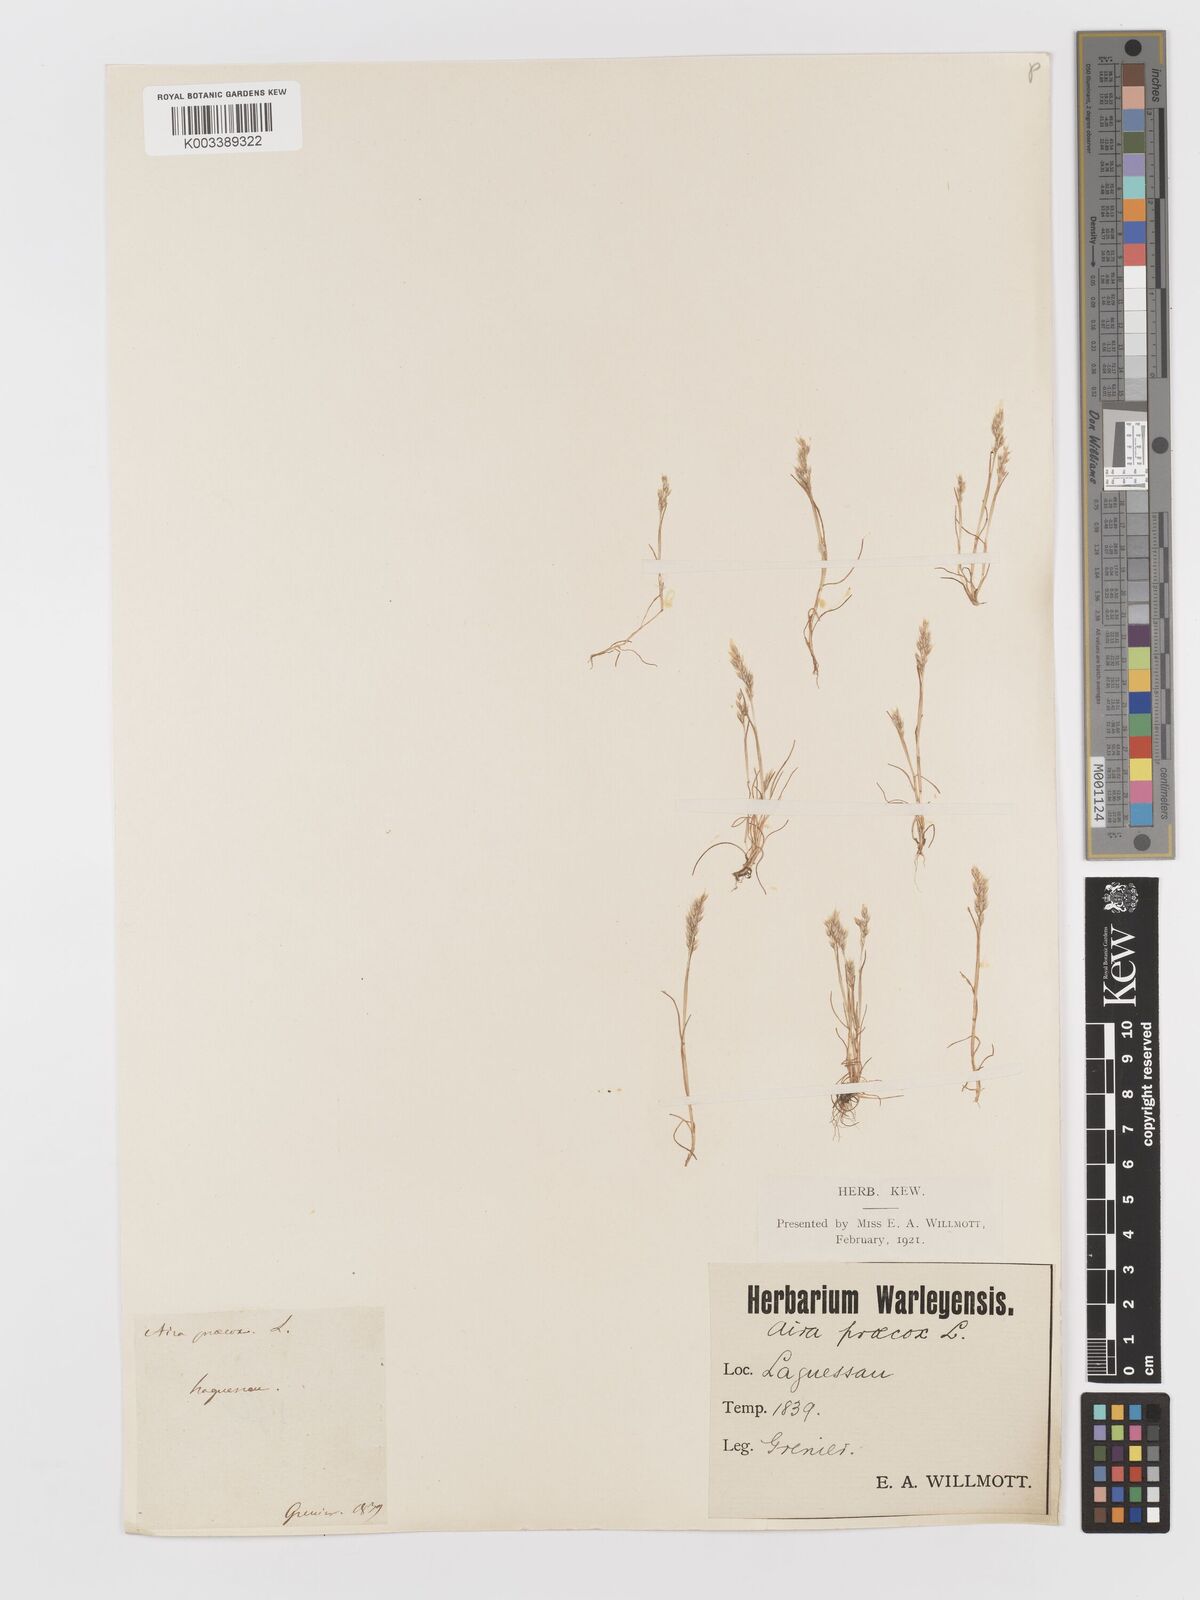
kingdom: Plantae
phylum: Tracheophyta
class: Liliopsida
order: Poales
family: Poaceae
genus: Aira
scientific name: Aira praecox
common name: Early hair-grass
